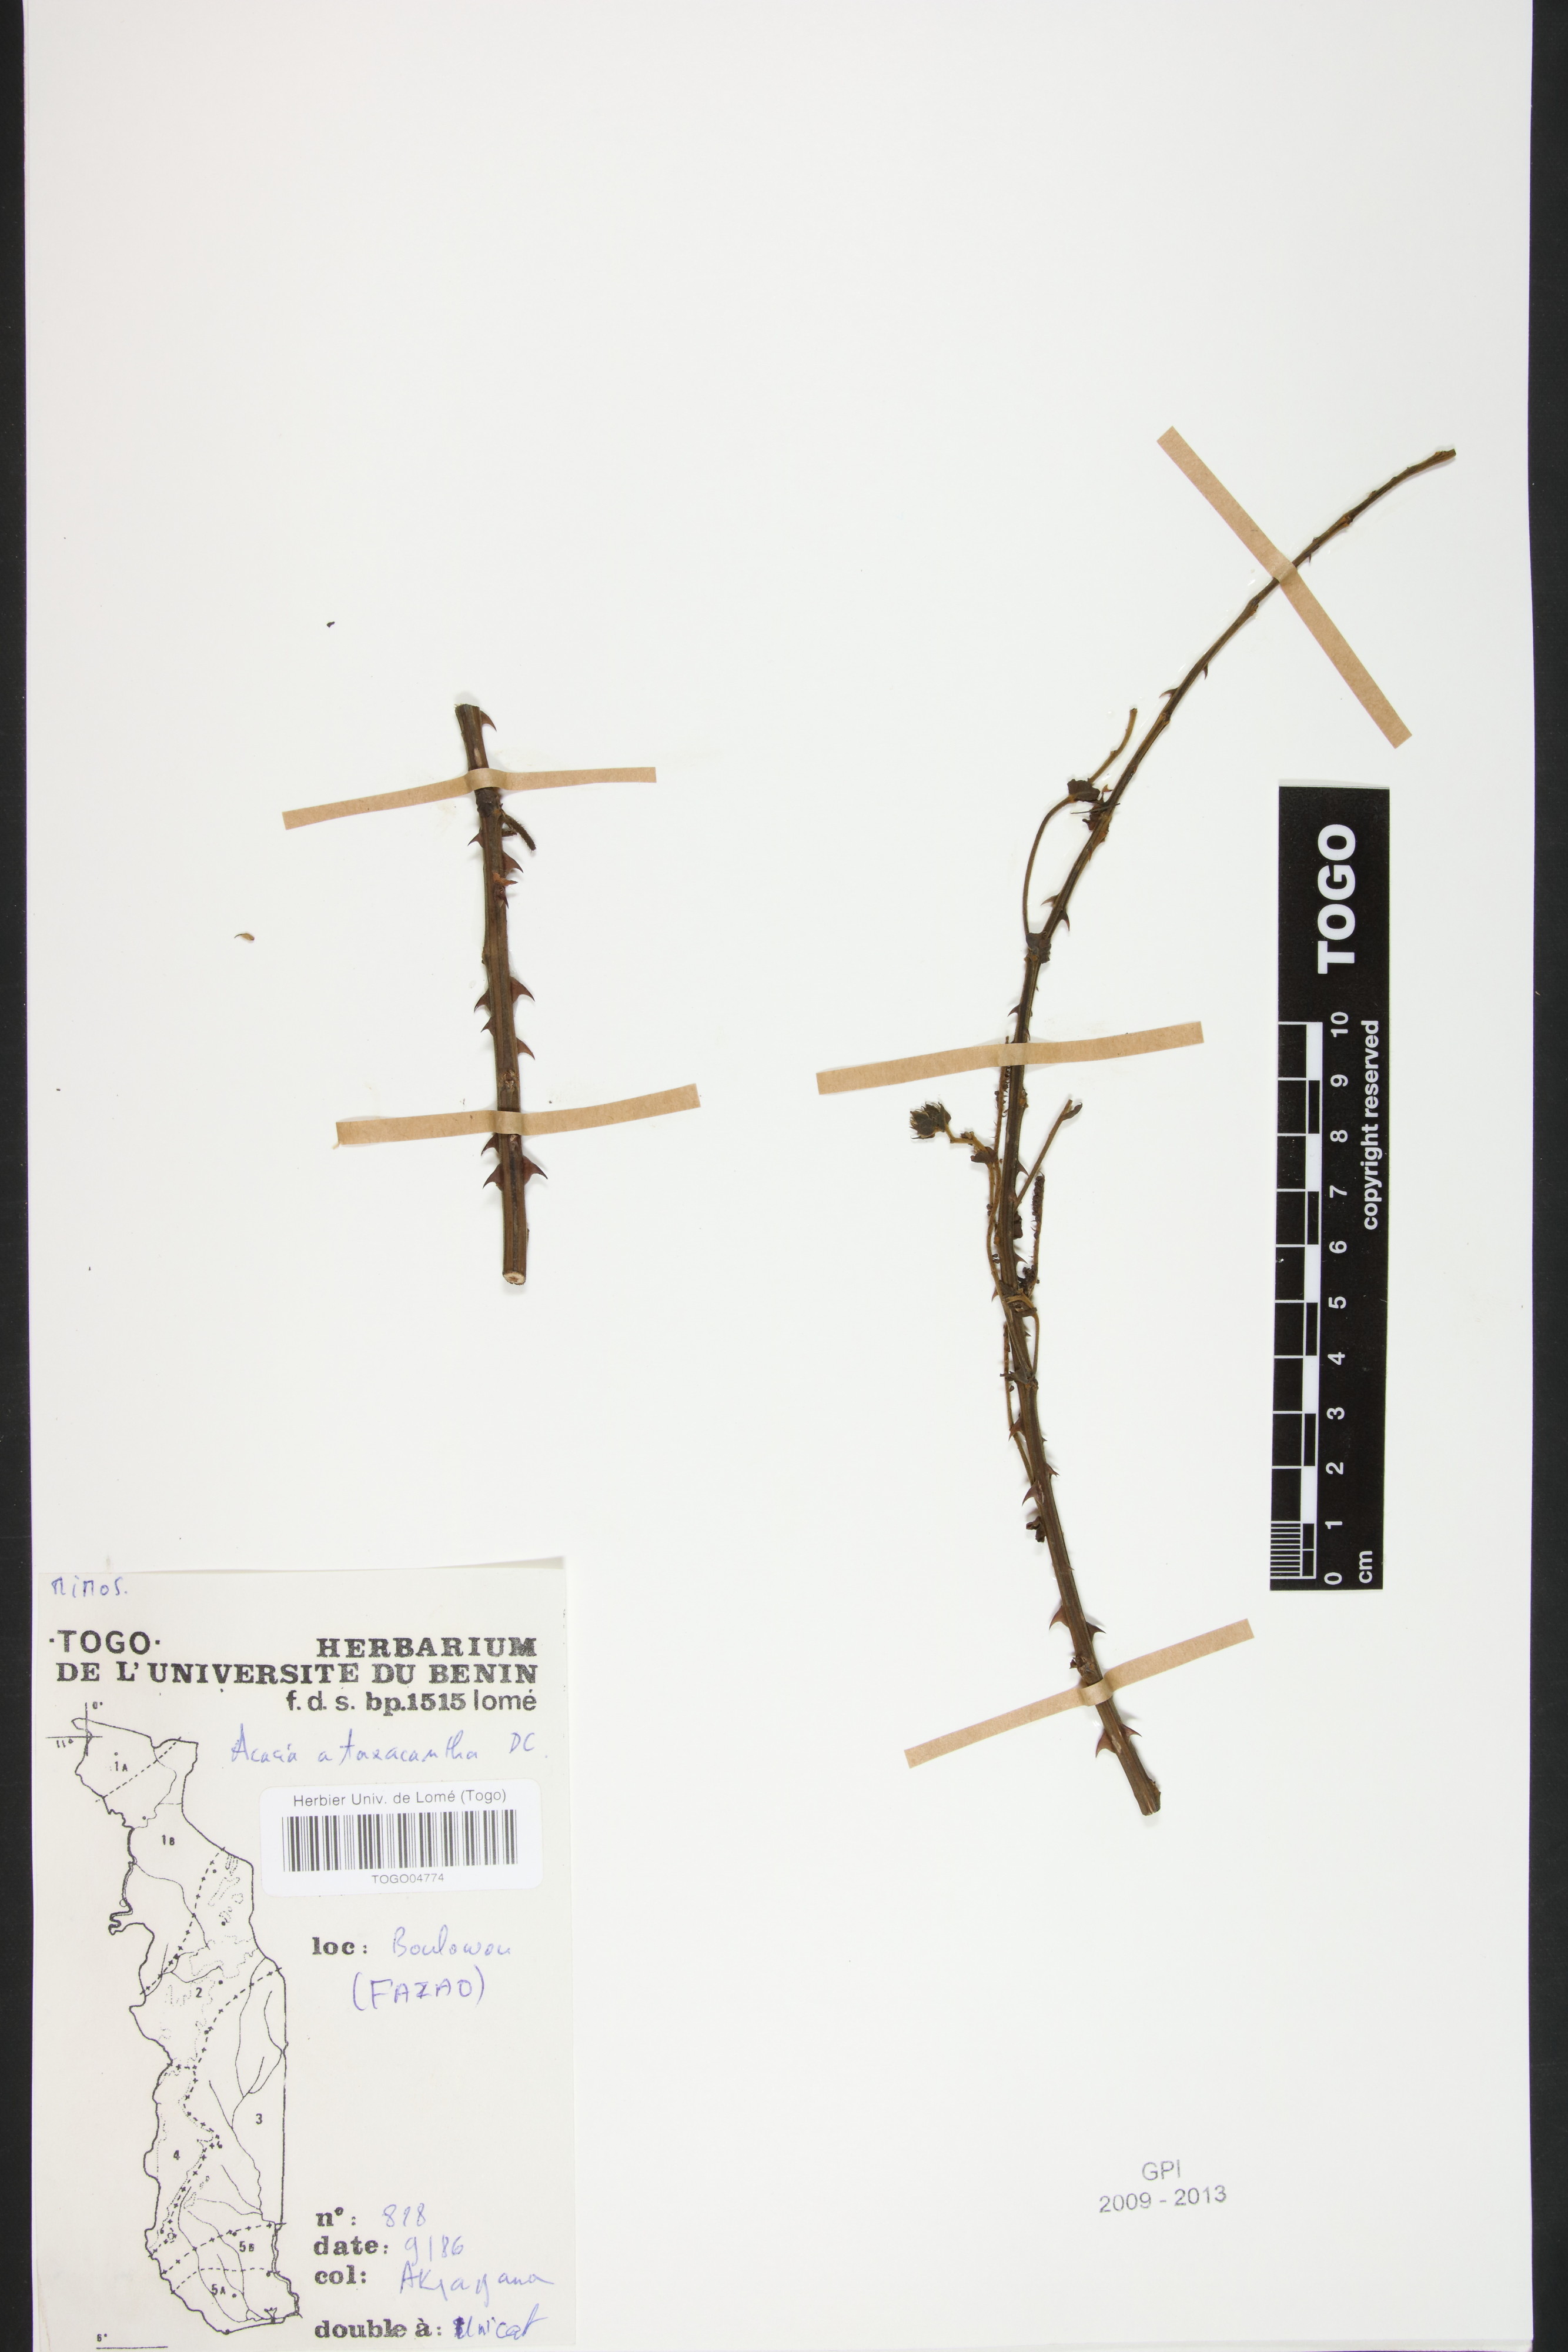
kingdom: Plantae
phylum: Tracheophyta
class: Magnoliopsida
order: Fabales
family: Fabaceae
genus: Senegalia
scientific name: Senegalia ataxacantha
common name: Flame acacia
